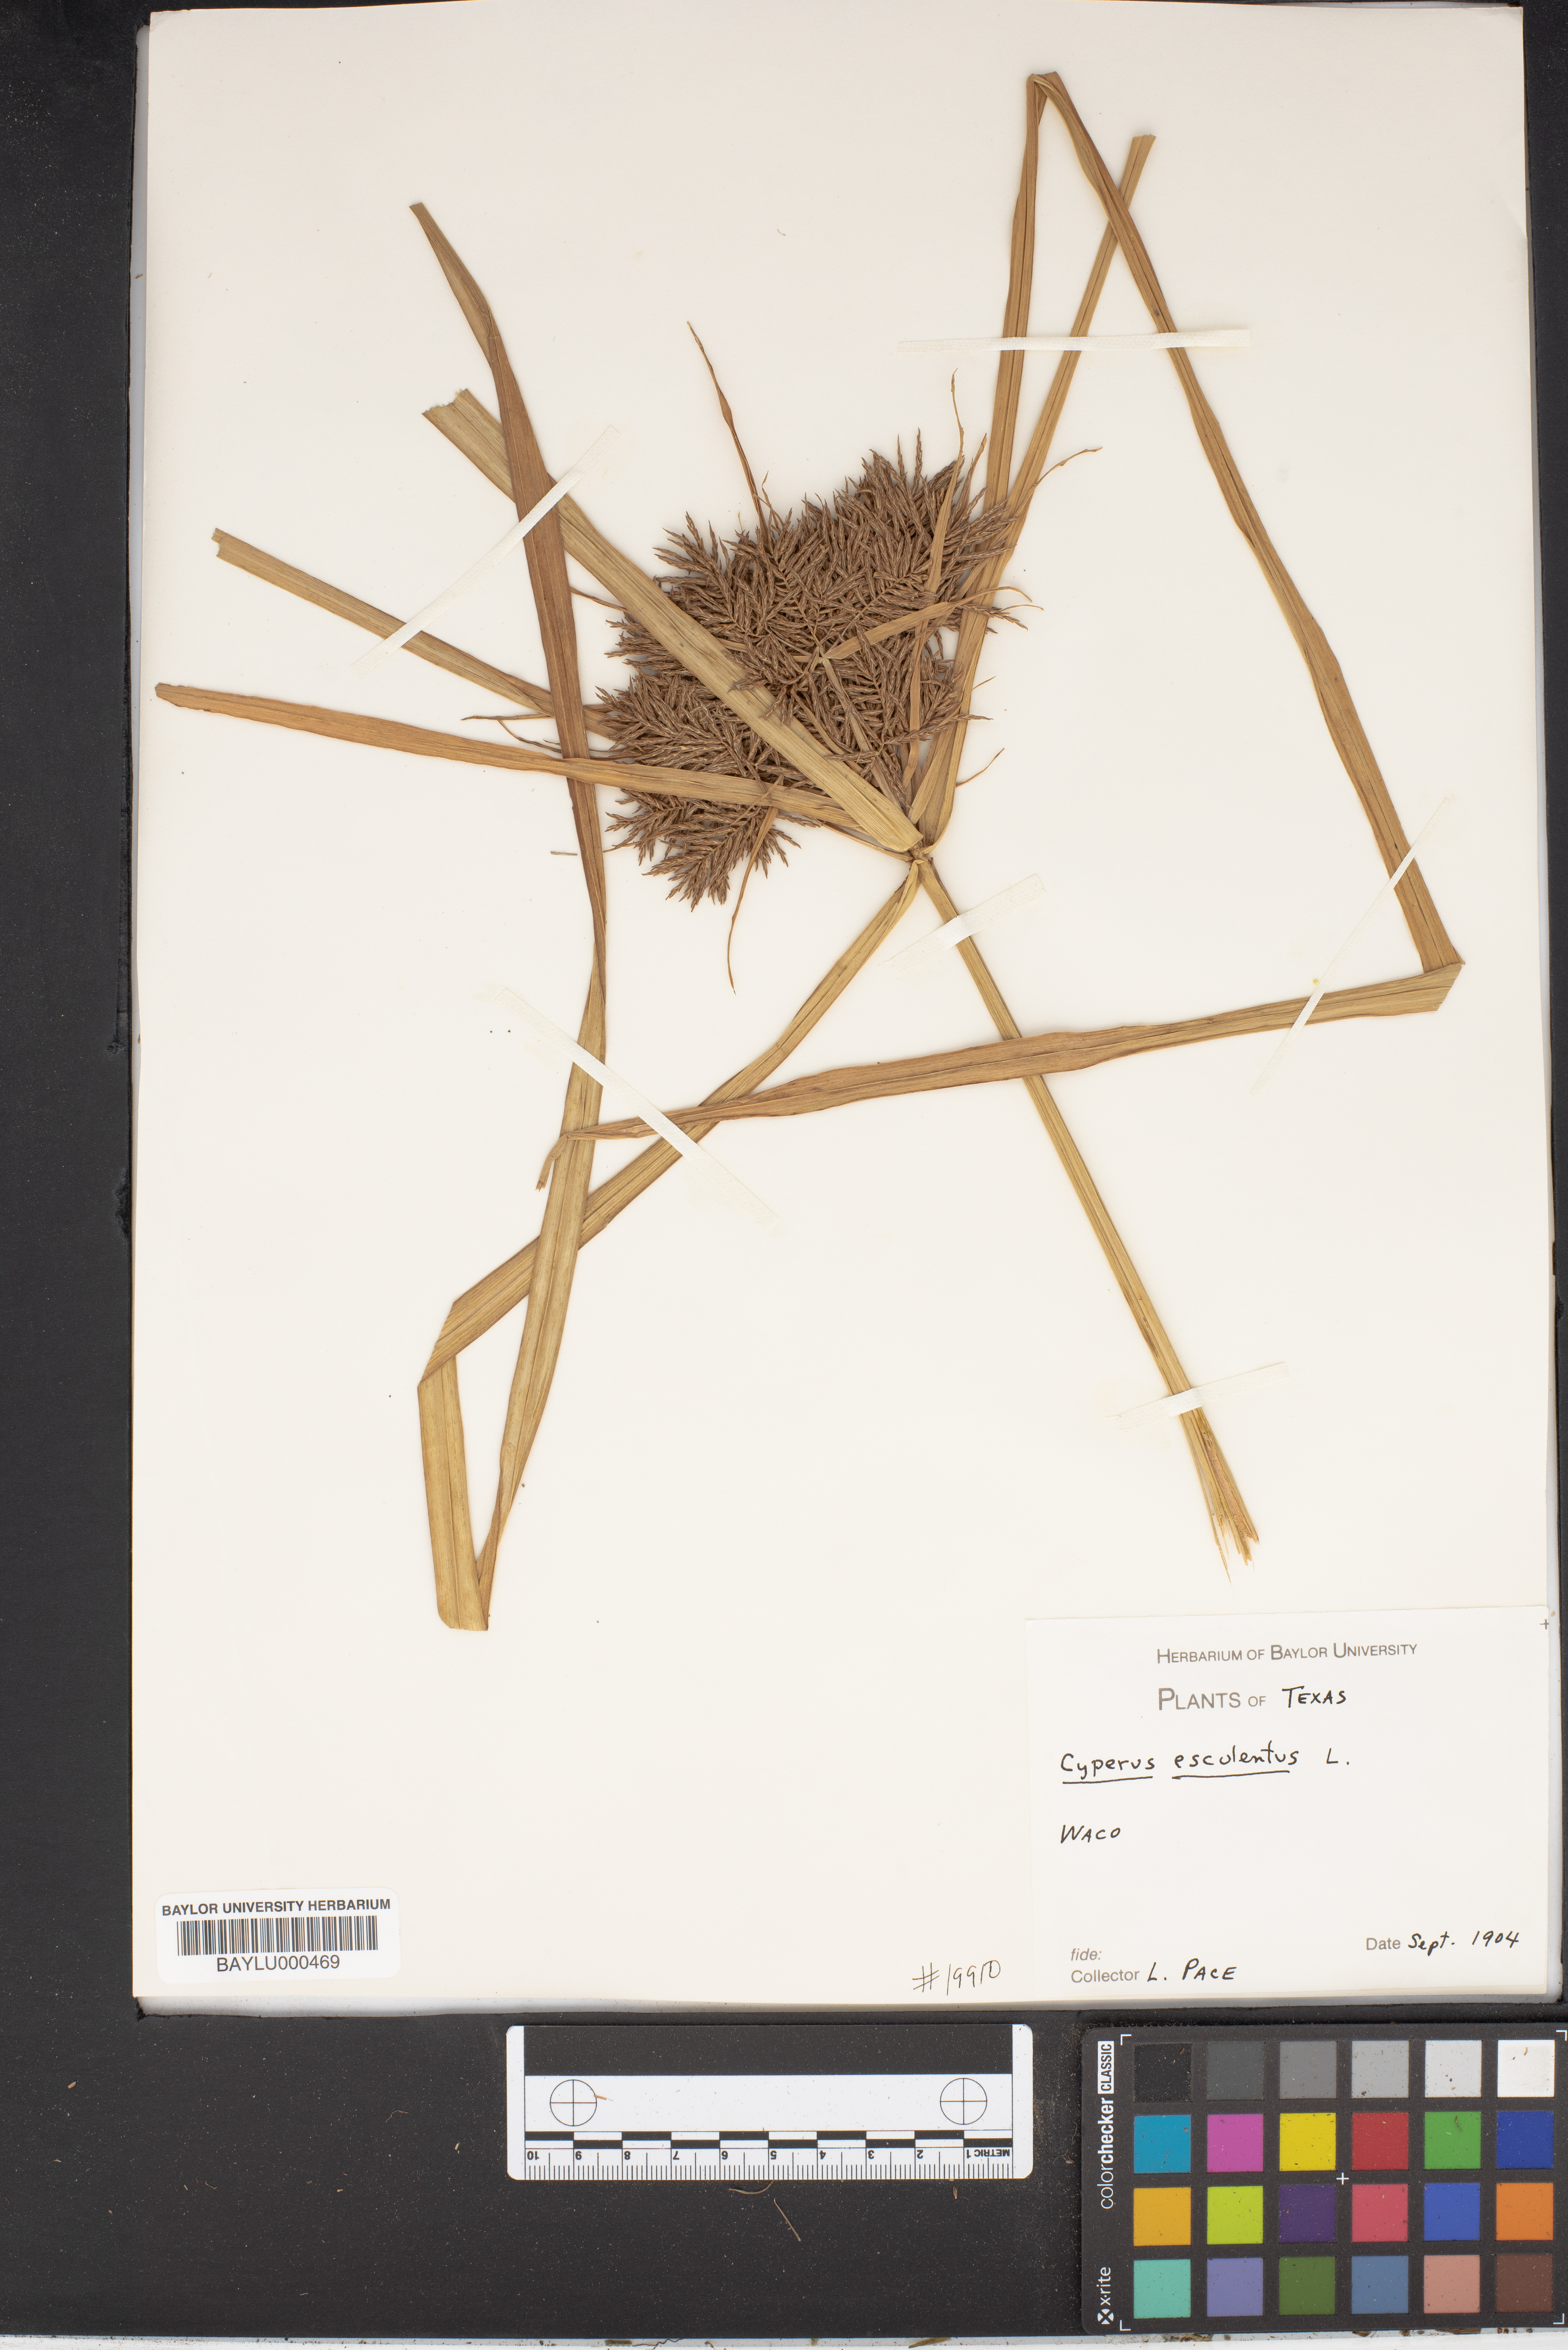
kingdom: Plantae
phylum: Tracheophyta
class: Liliopsida
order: Poales
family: Cyperaceae
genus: Cyperus
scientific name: Cyperus esculentus
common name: Yellow nutsedge
